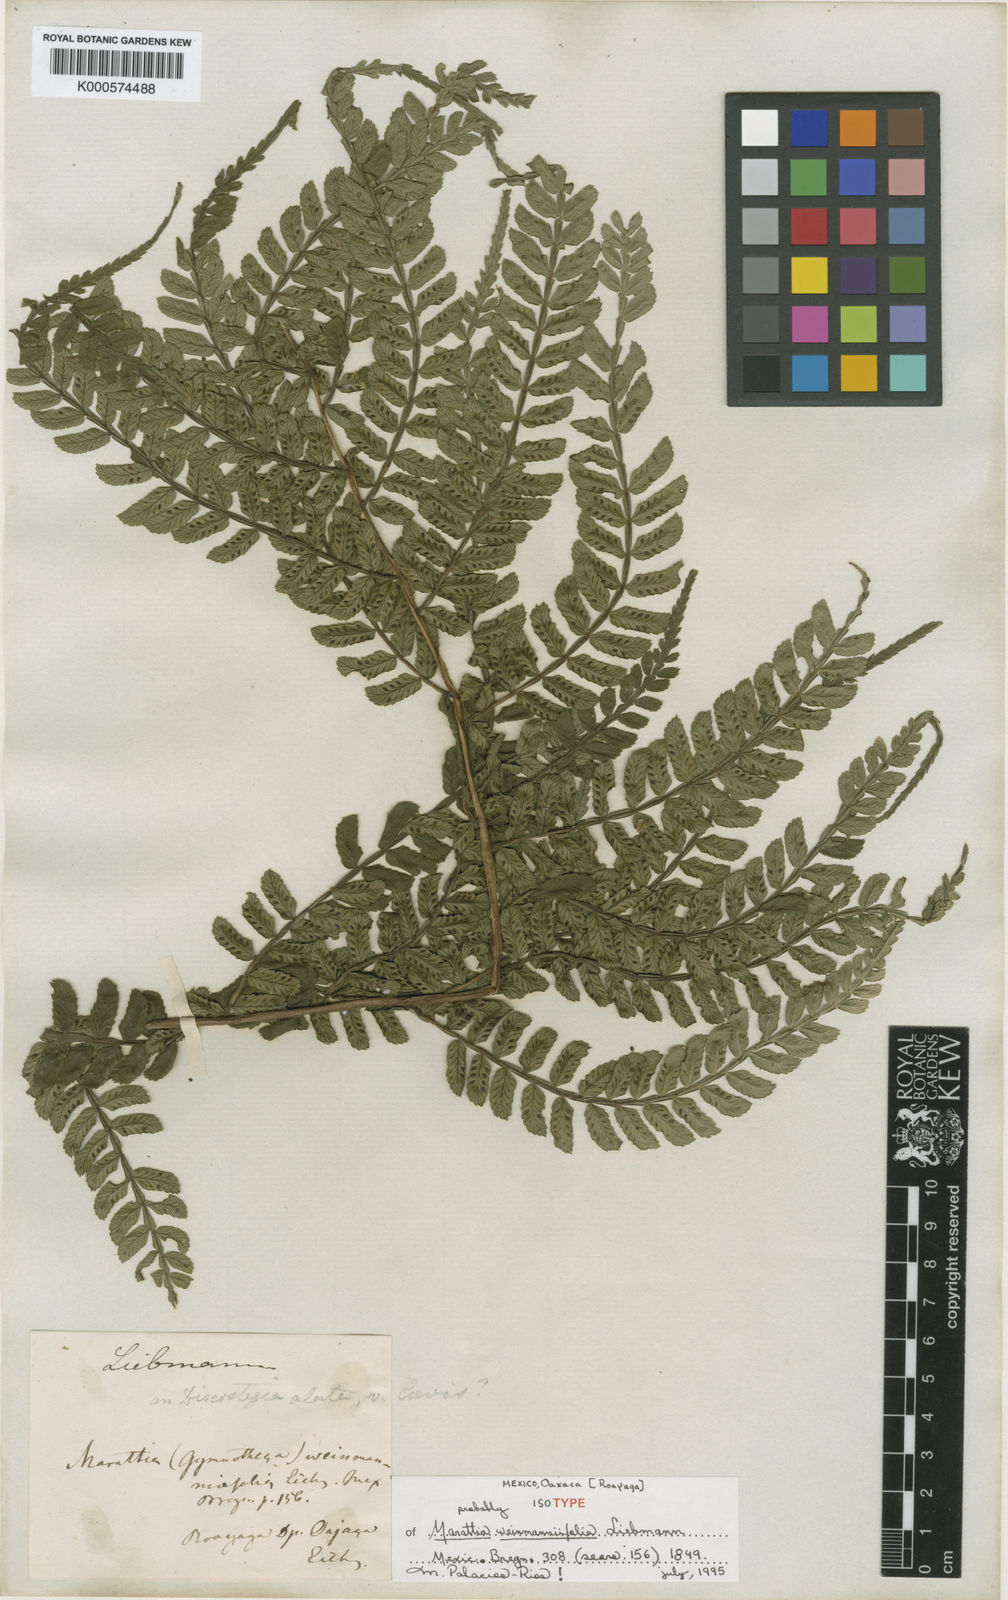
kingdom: Plantae
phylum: Tracheophyta
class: Polypodiopsida
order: Marattiales
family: Marattiaceae
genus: Marattia
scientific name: Marattia weinmanniifolia
